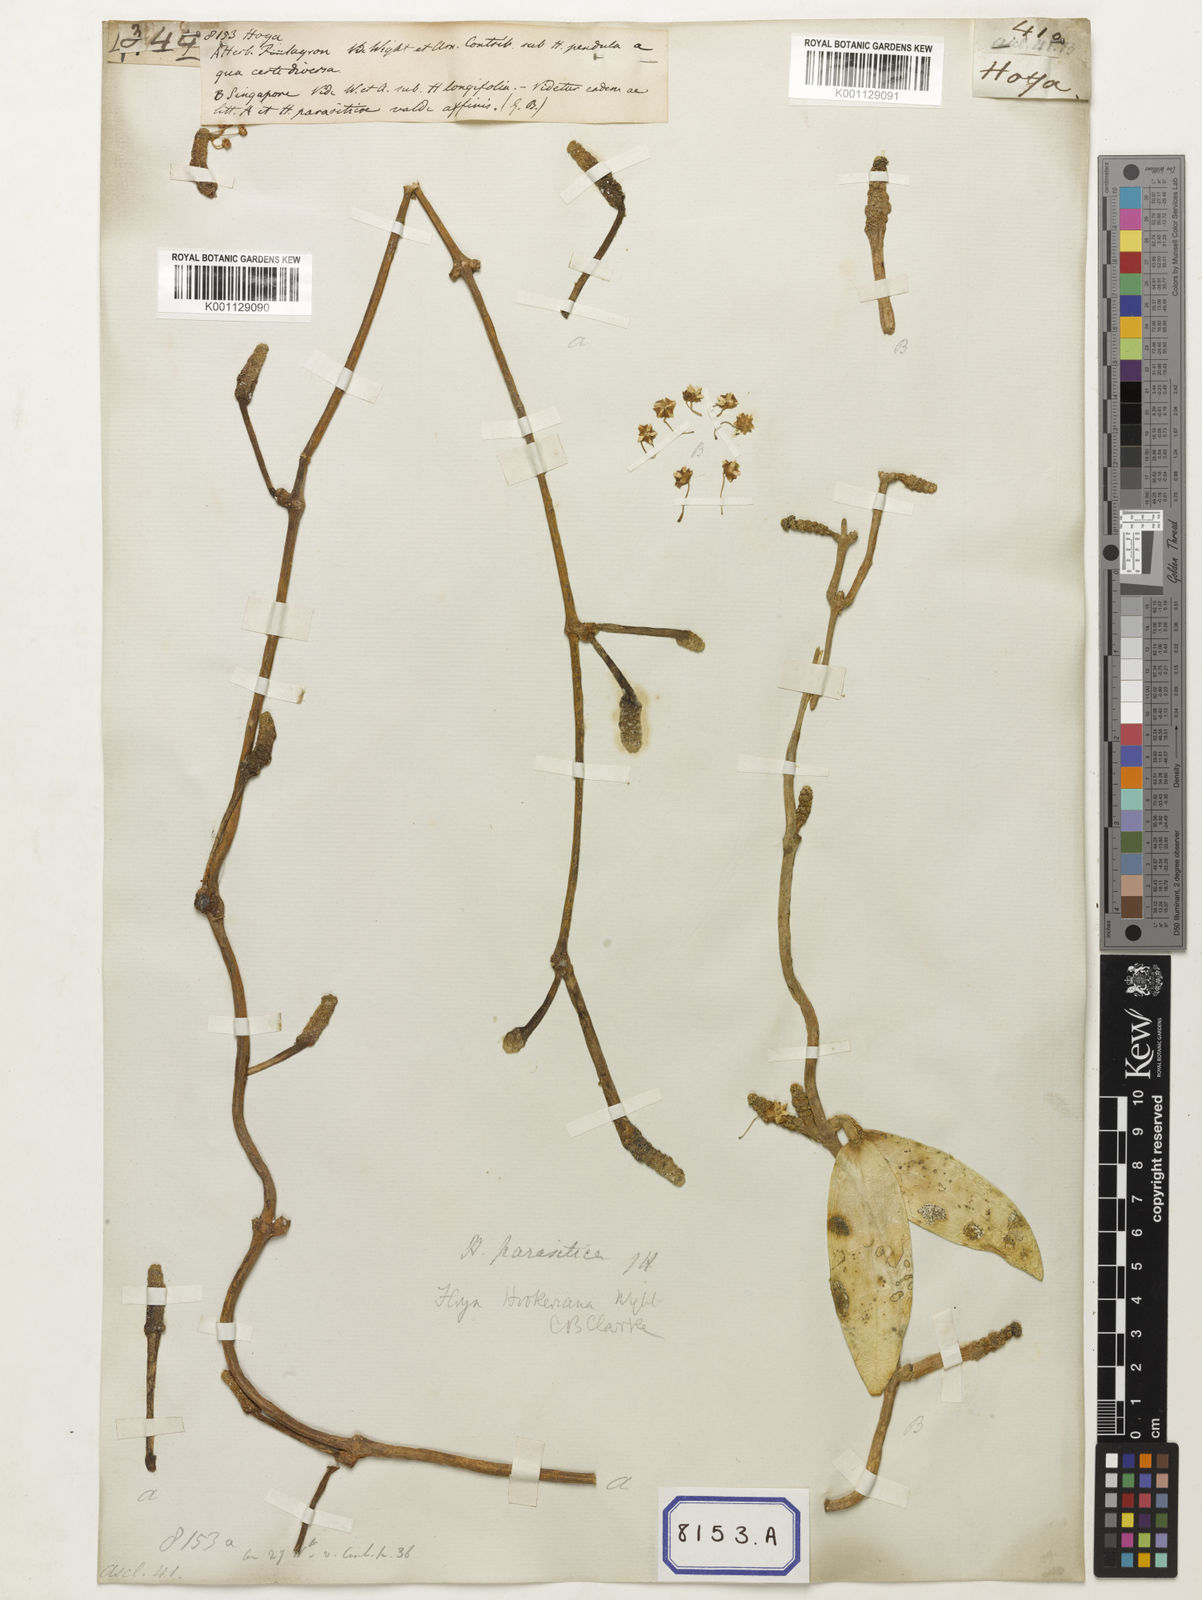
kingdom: Plantae
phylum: Tracheophyta
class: Magnoliopsida
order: Gentianales
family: Apocynaceae
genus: Hoya
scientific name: Hoya
